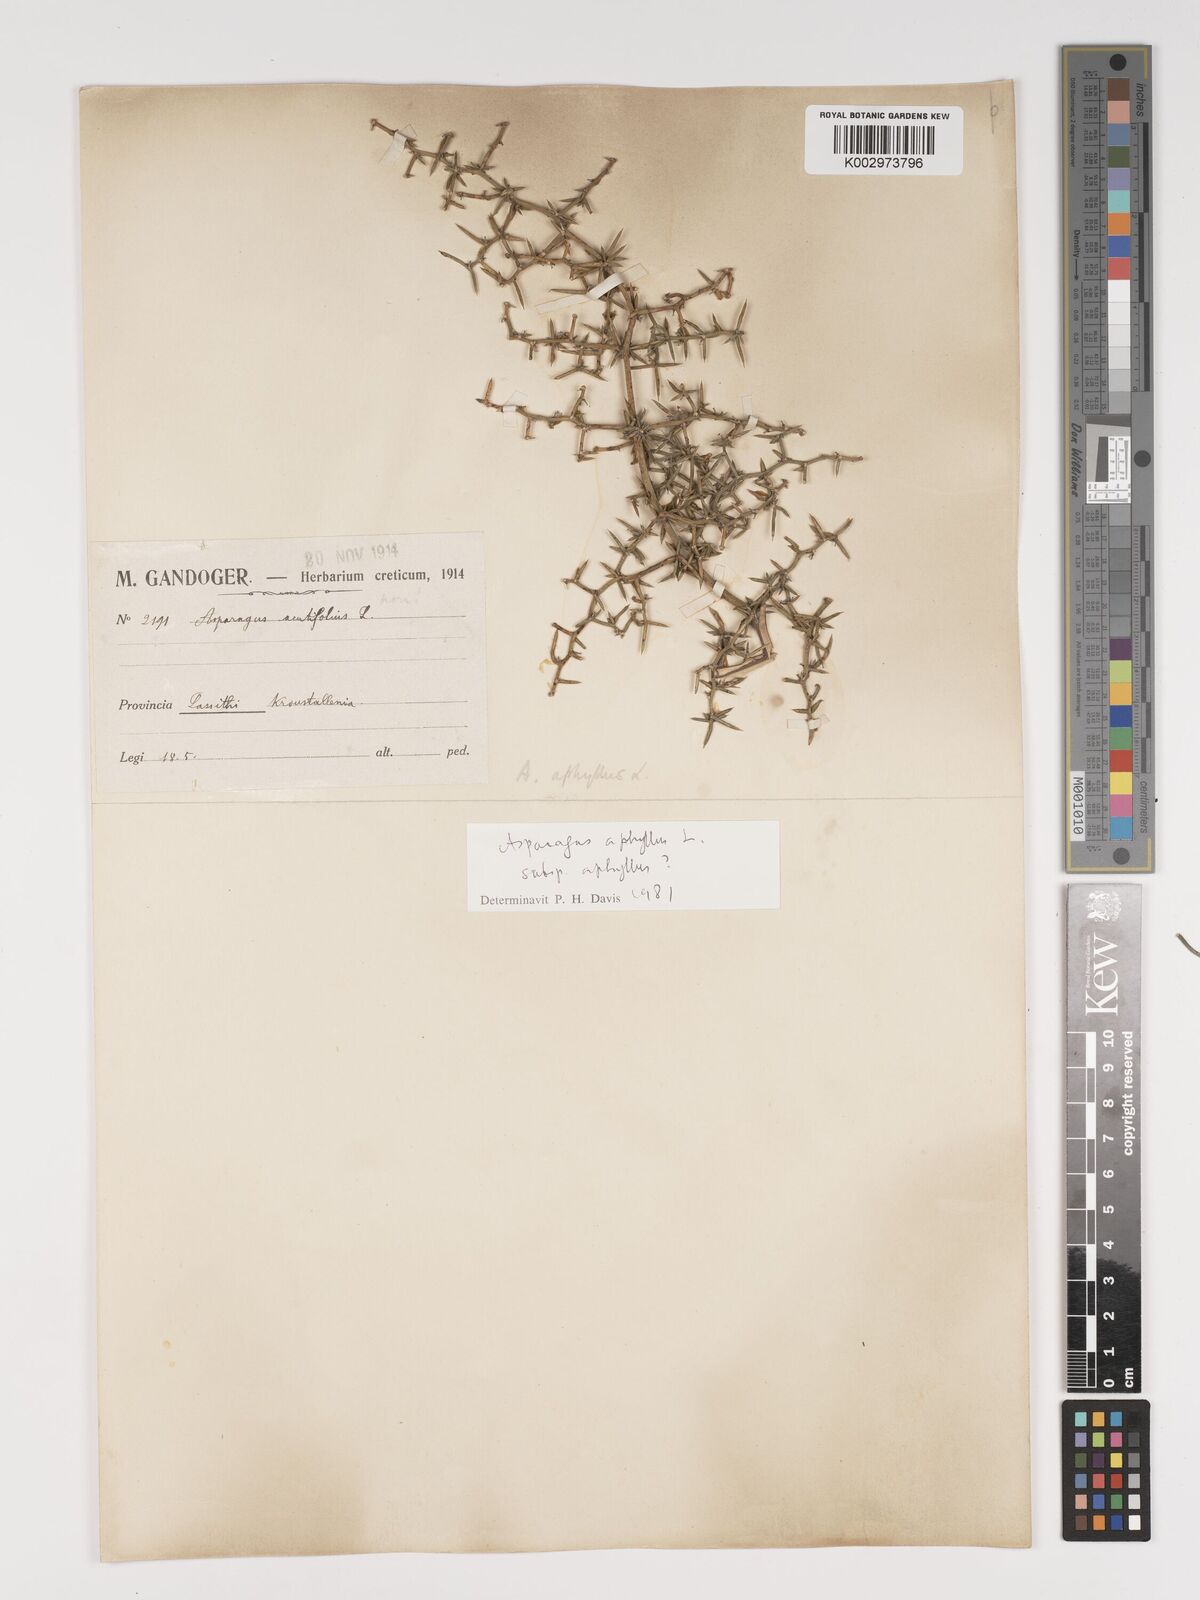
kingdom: Plantae
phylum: Tracheophyta
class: Liliopsida
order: Asparagales
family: Asparagaceae
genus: Asparagus
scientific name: Asparagus aphyllus
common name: Mediterranean asparagus
